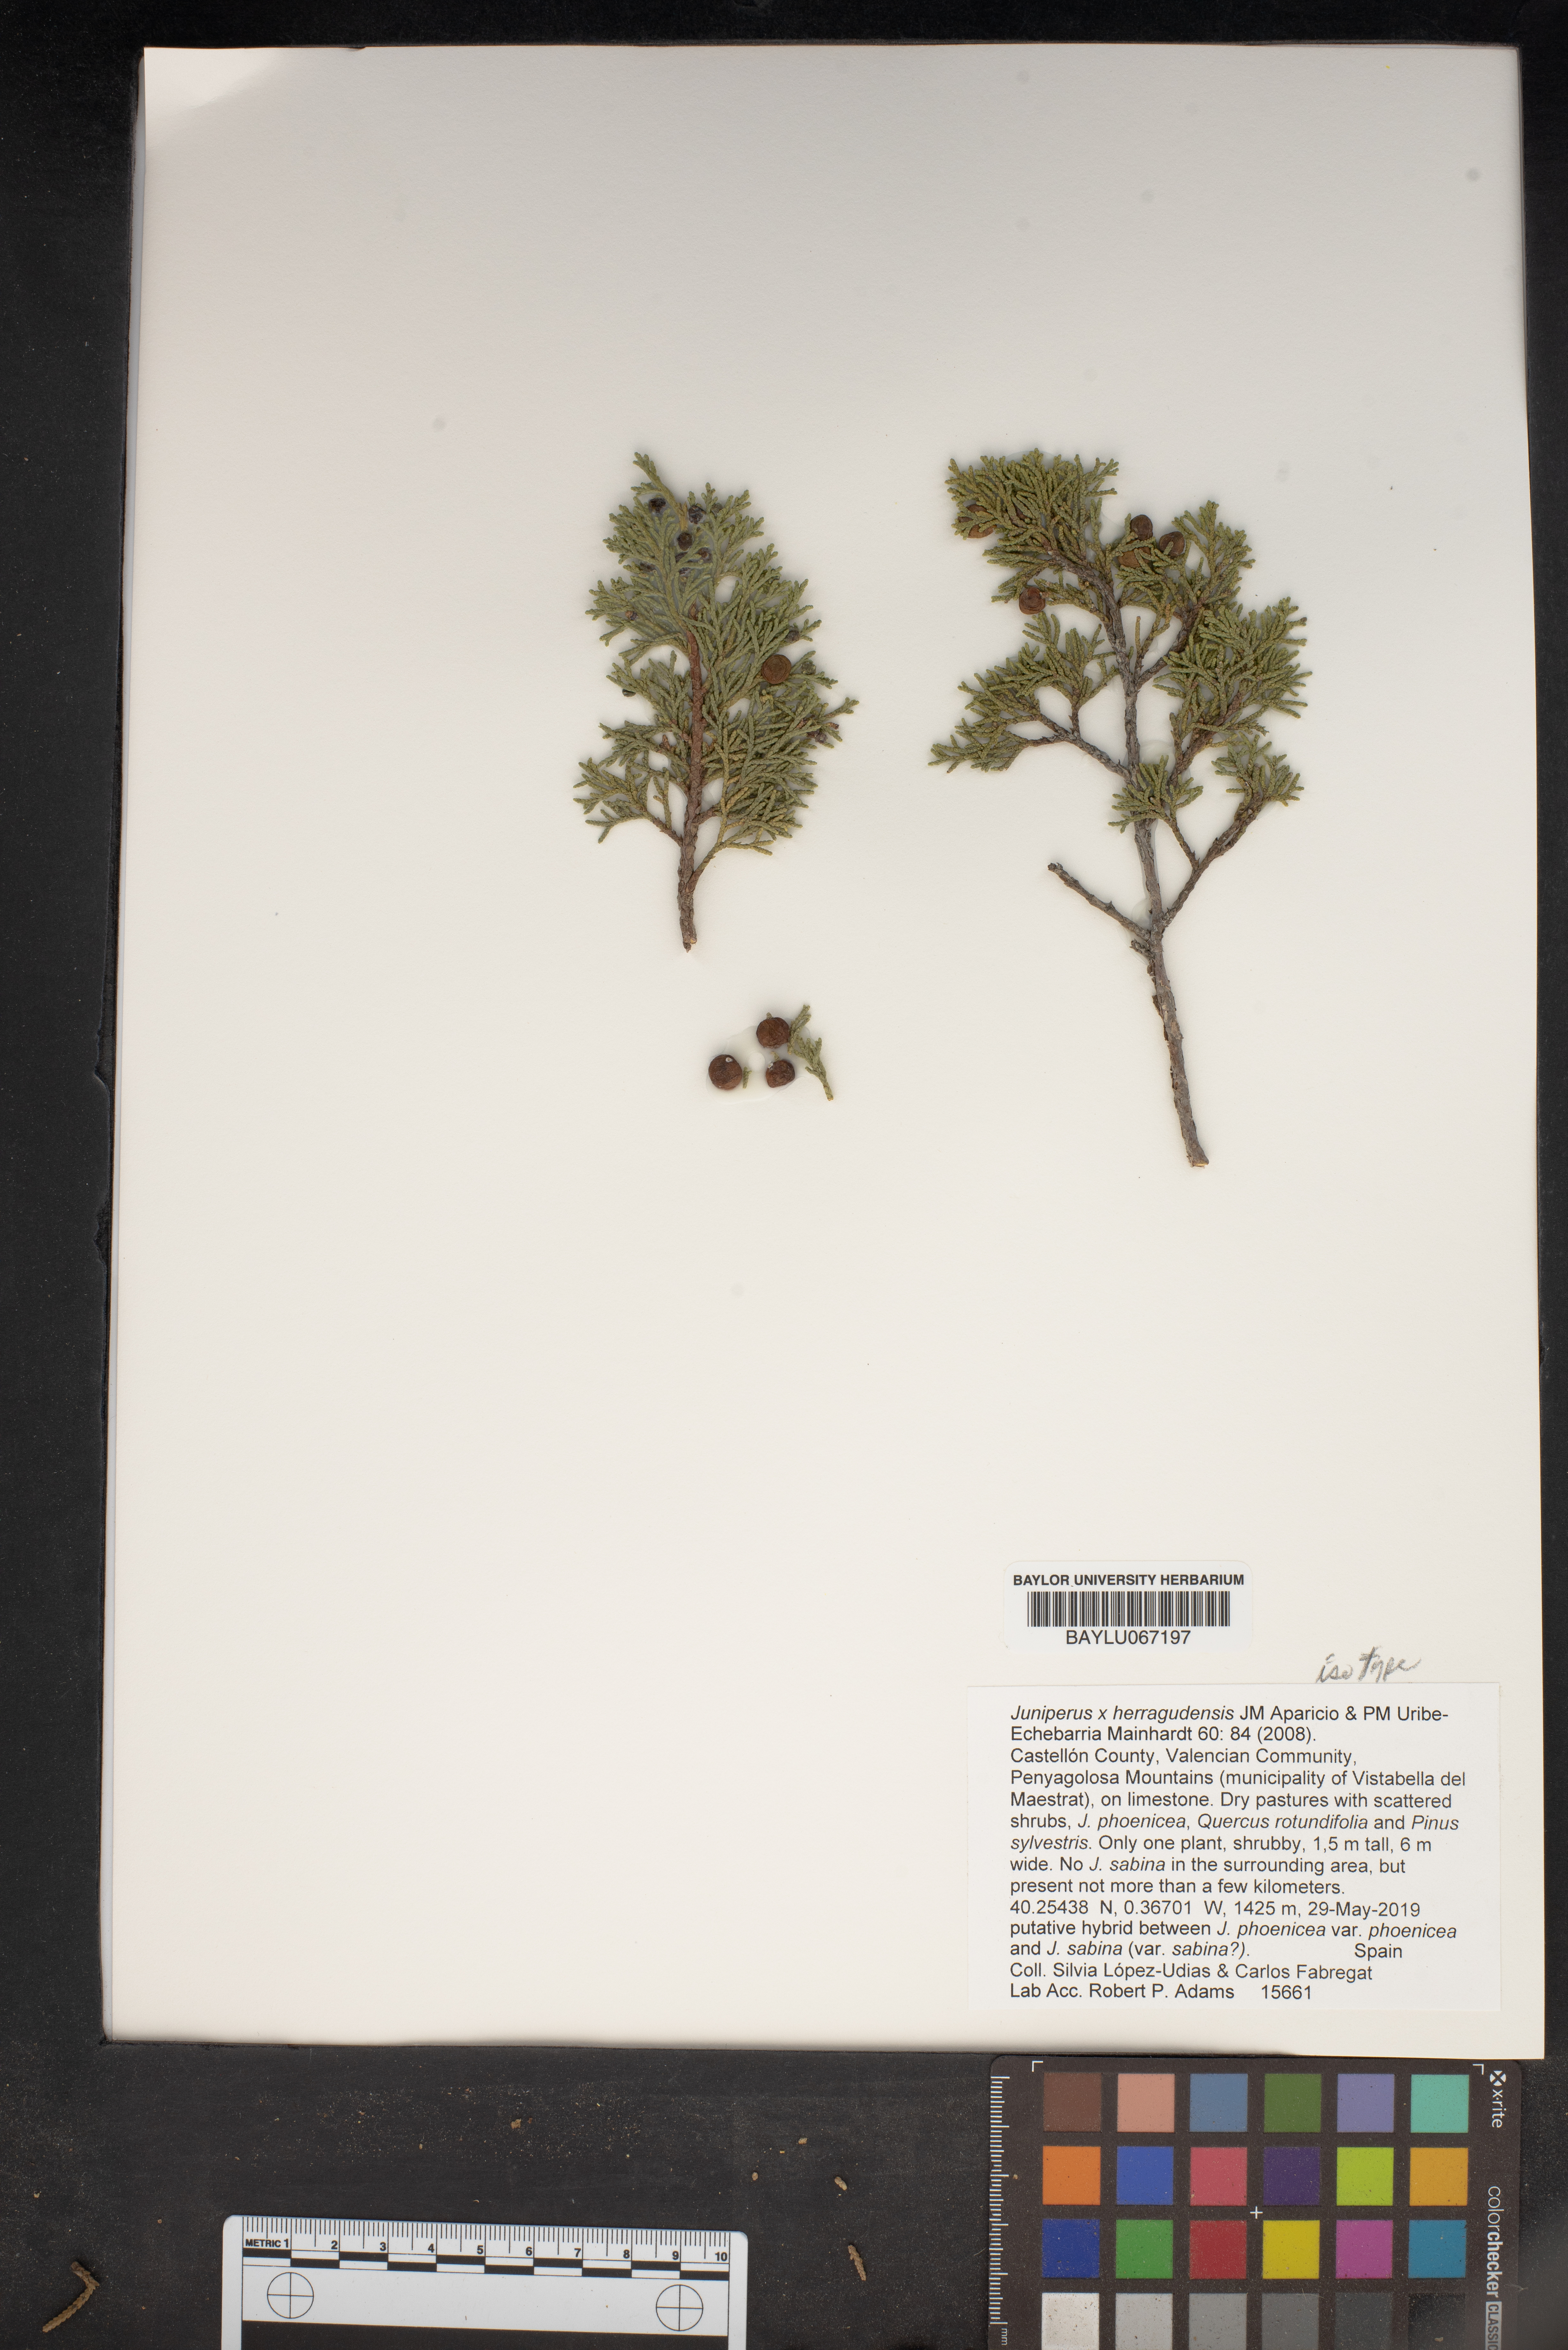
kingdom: Plantae
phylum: Tracheophyta
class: Pinopsida
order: Pinales
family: Cupressaceae
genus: Juniperus
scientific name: Juniperus herragudensis
